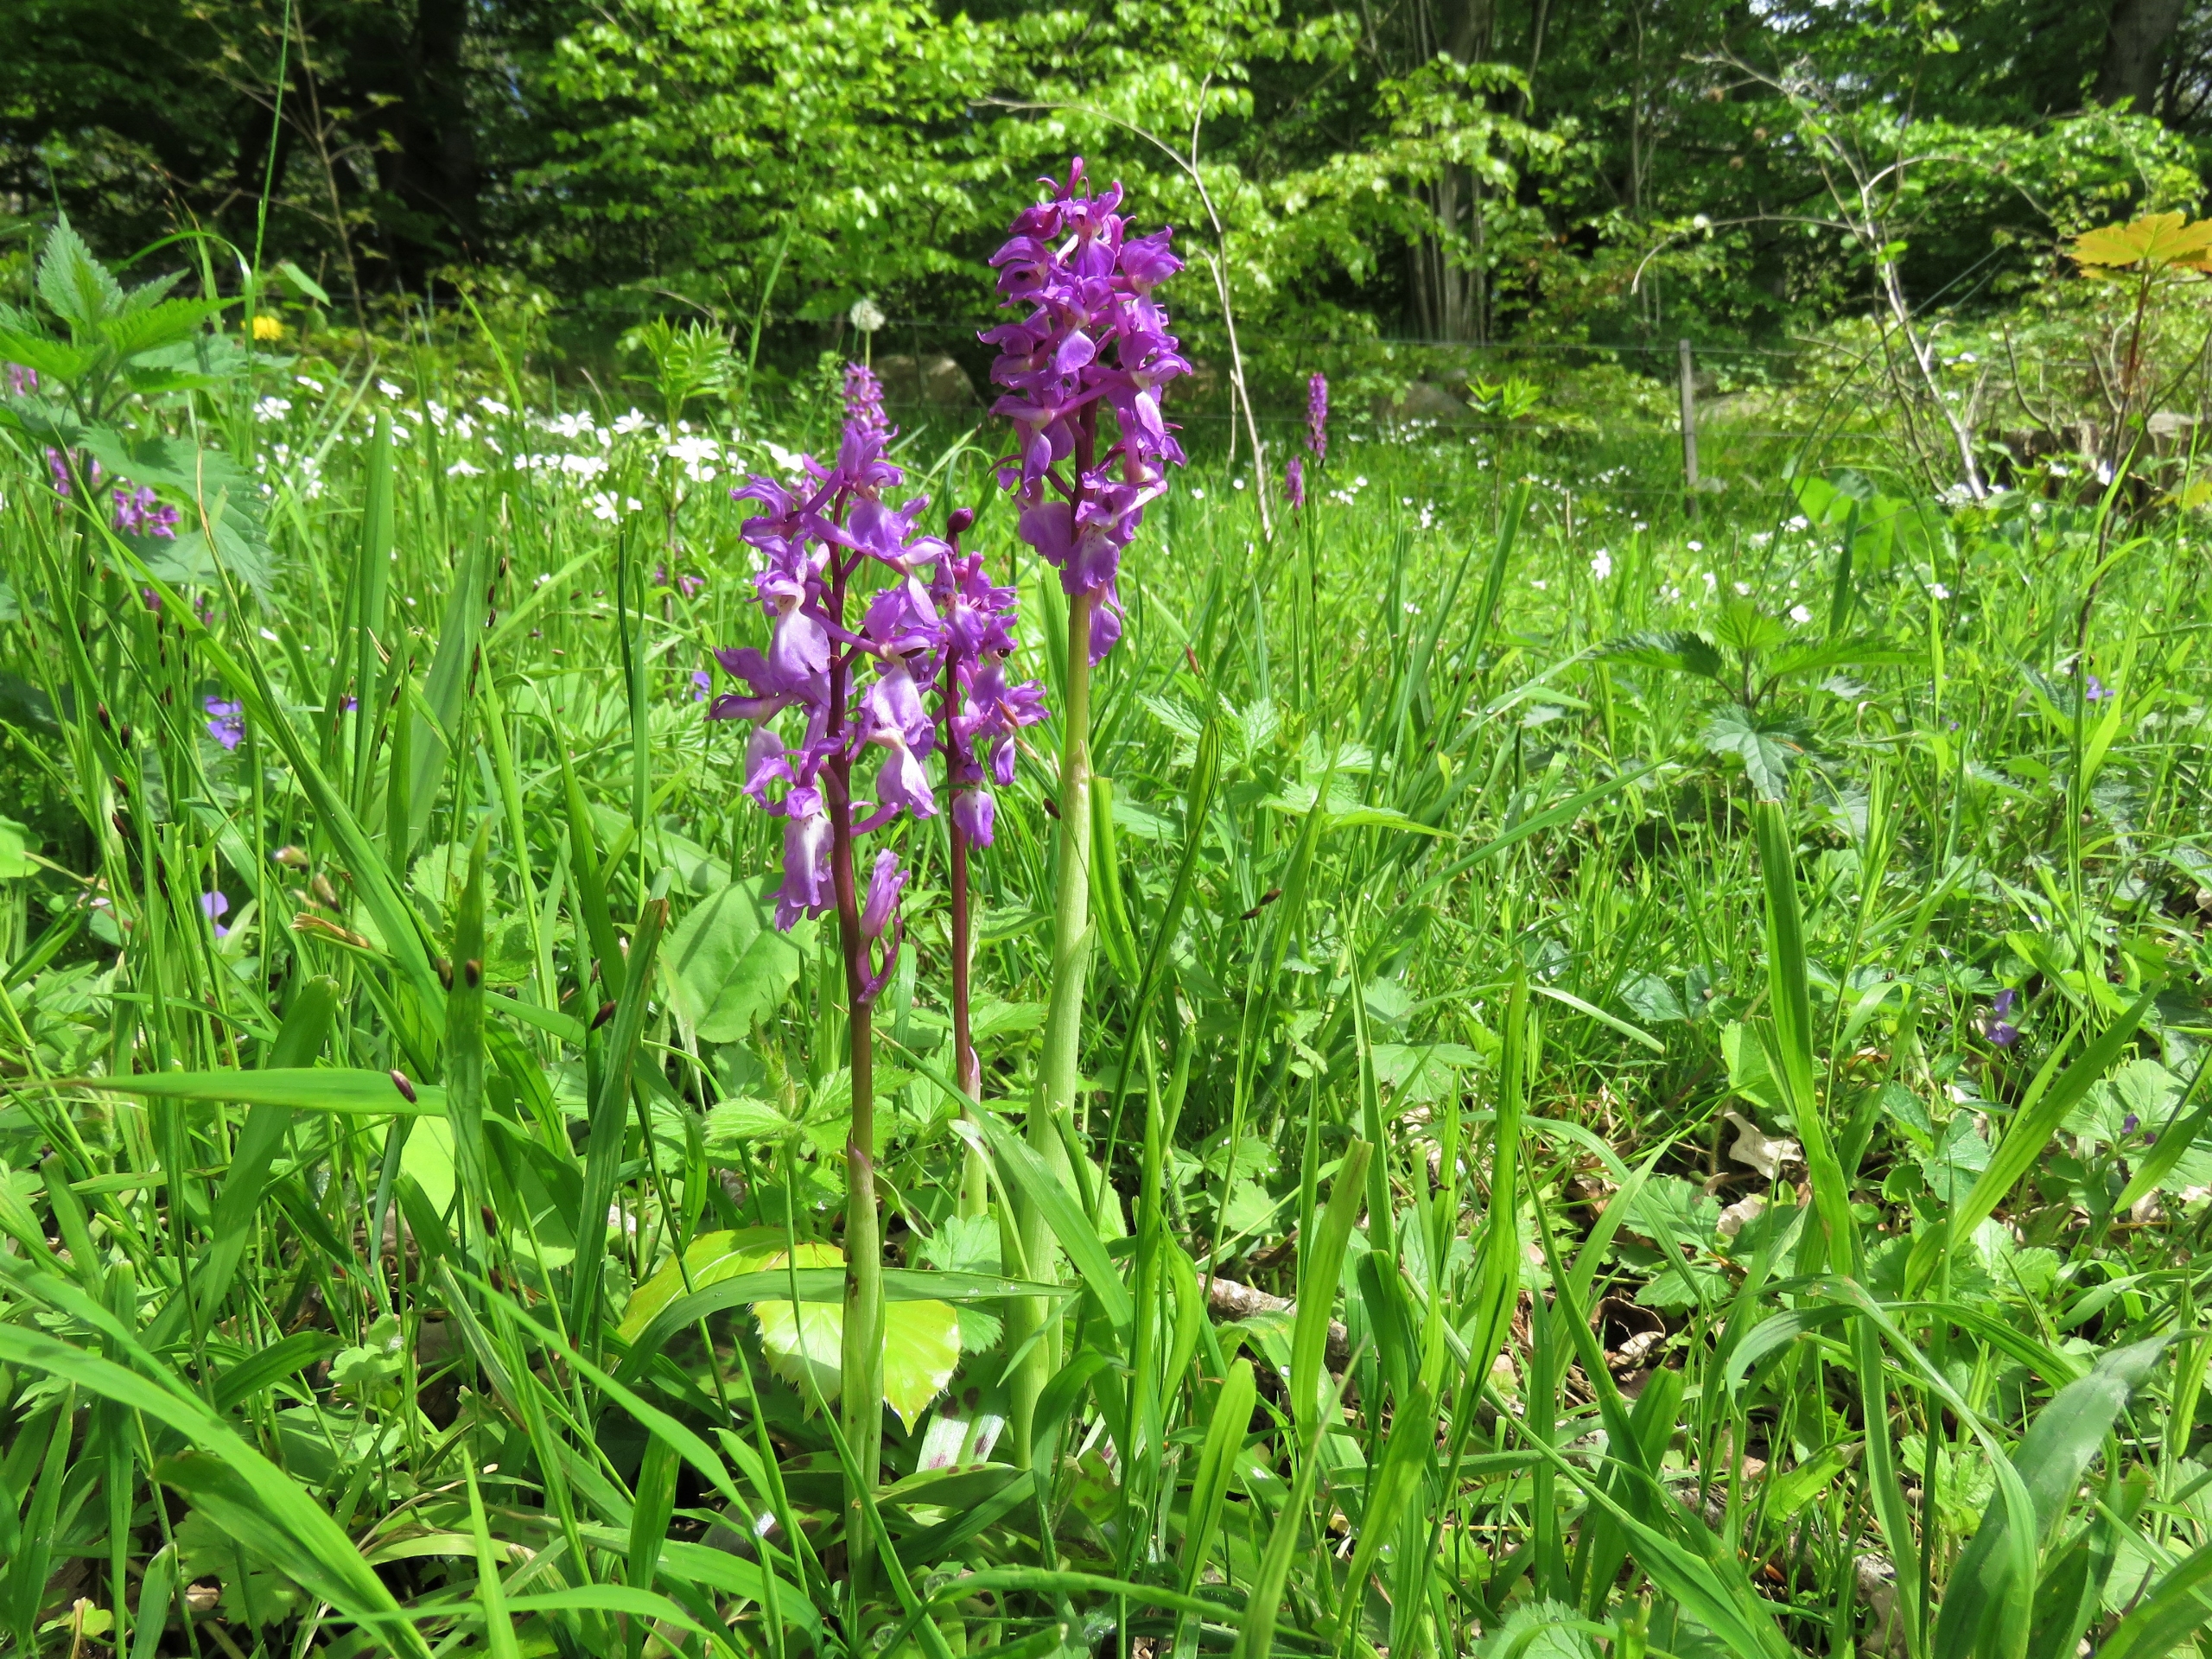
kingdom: Plantae
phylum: Tracheophyta
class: Liliopsida
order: Asparagales
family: Orchidaceae
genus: Orchis
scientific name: Orchis mascula
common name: Tyndakset gøgeurt
